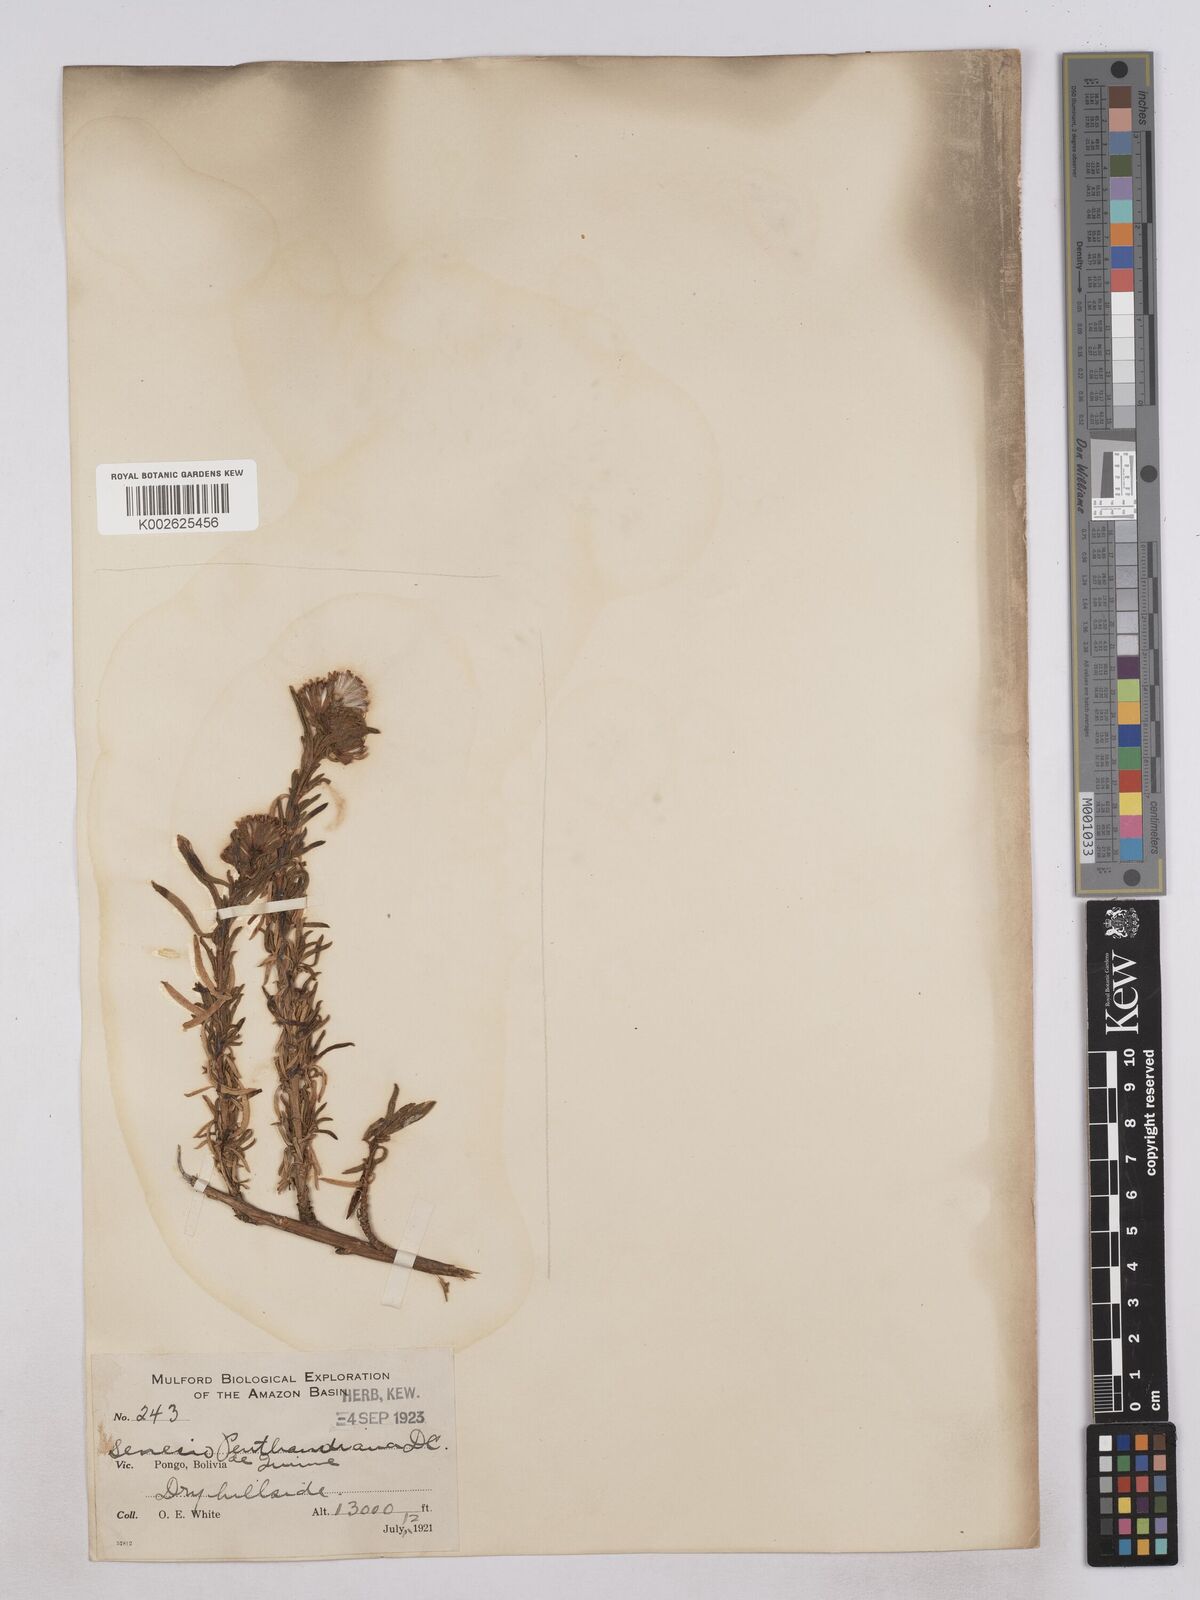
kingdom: Plantae
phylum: Tracheophyta
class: Magnoliopsida
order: Asterales
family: Asteraceae
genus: Senecio
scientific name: Senecio pentlandianus
